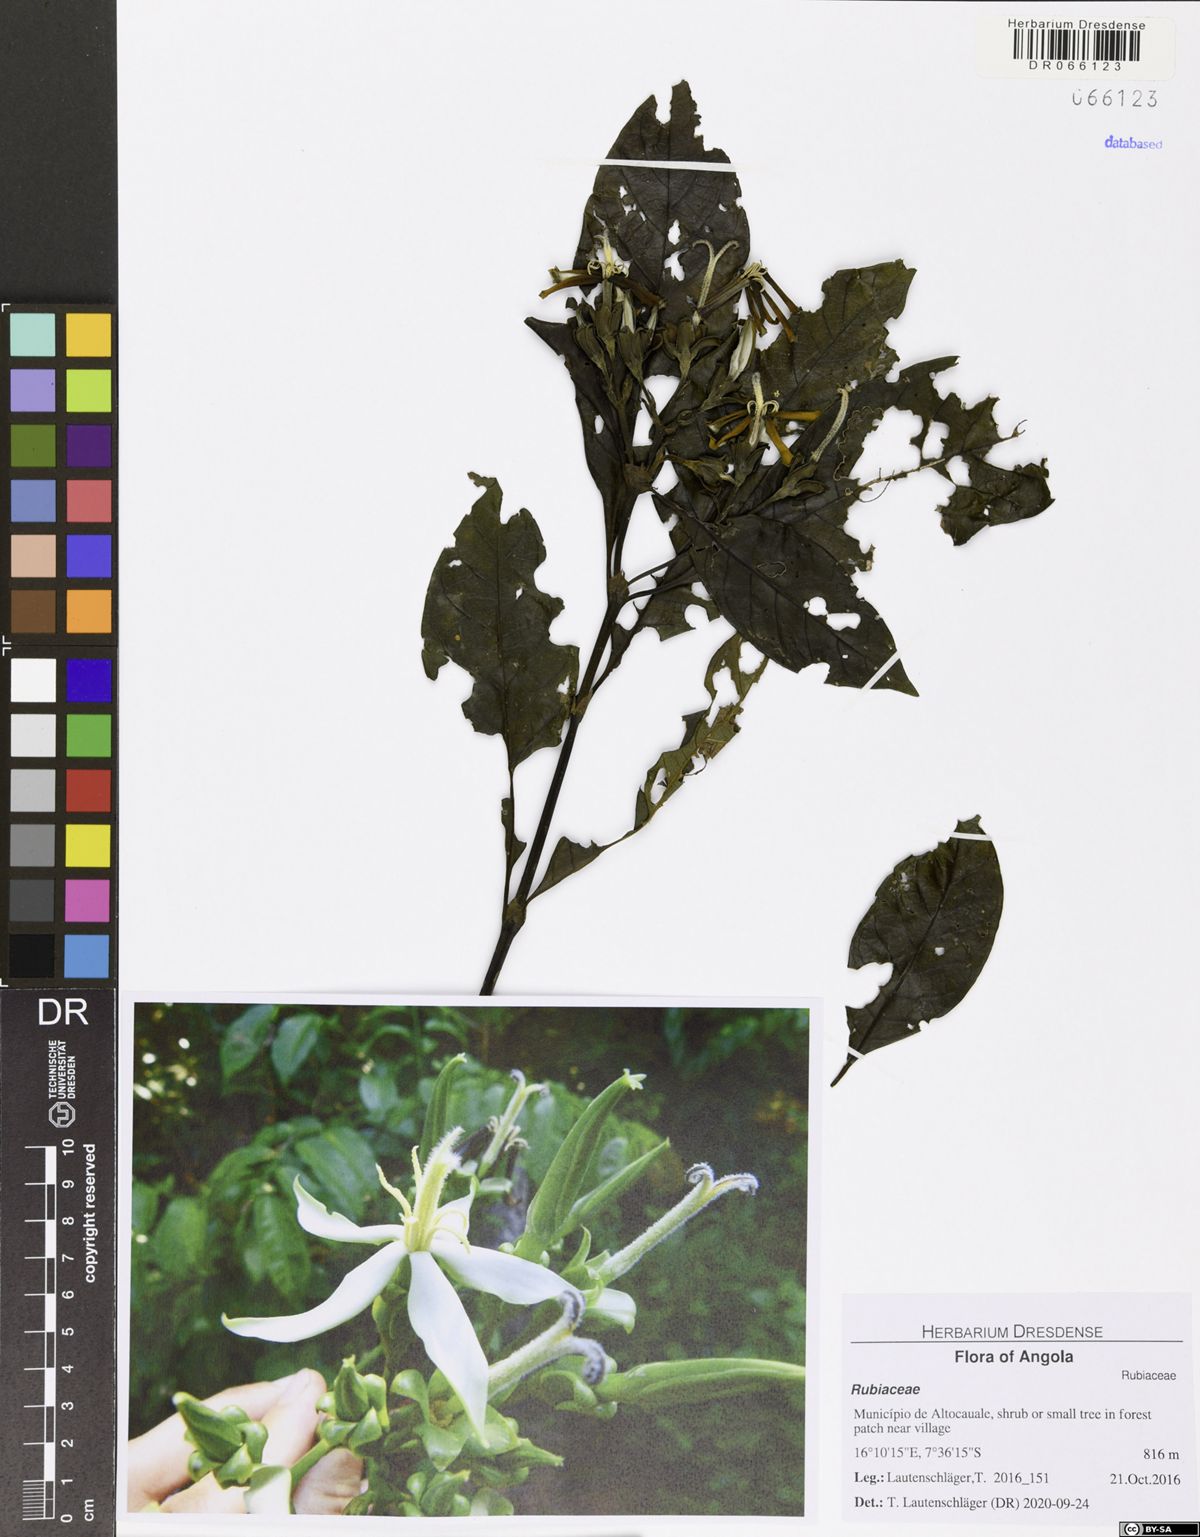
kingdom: Plantae
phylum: Tracheophyta
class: Magnoliopsida
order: Gentianales
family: Rubiaceae
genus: Leptactina
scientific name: Leptactina arborescens
